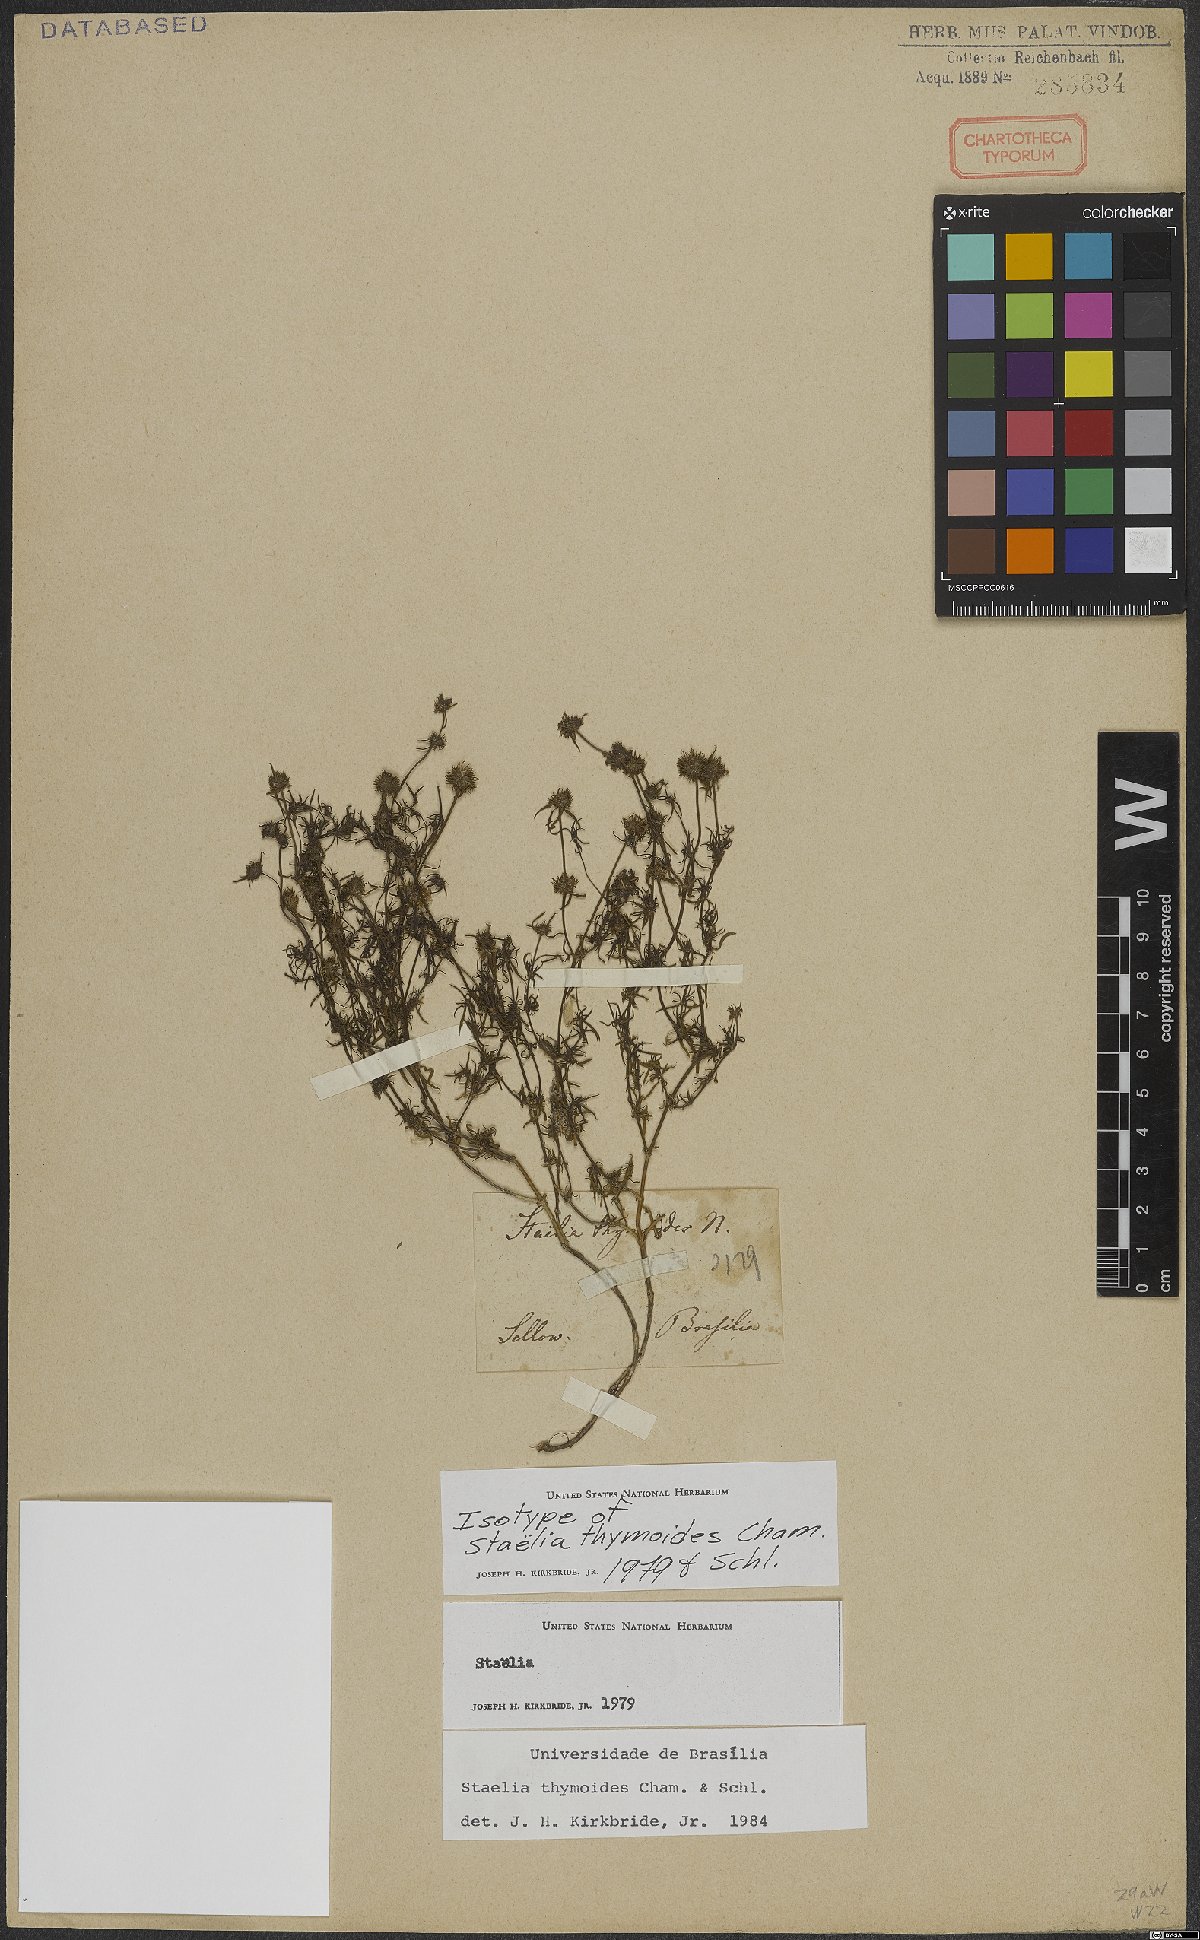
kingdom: Plantae
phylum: Tracheophyta
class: Magnoliopsida
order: Gentianales
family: Rubiaceae
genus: Staelia
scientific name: Staelia thymoides
